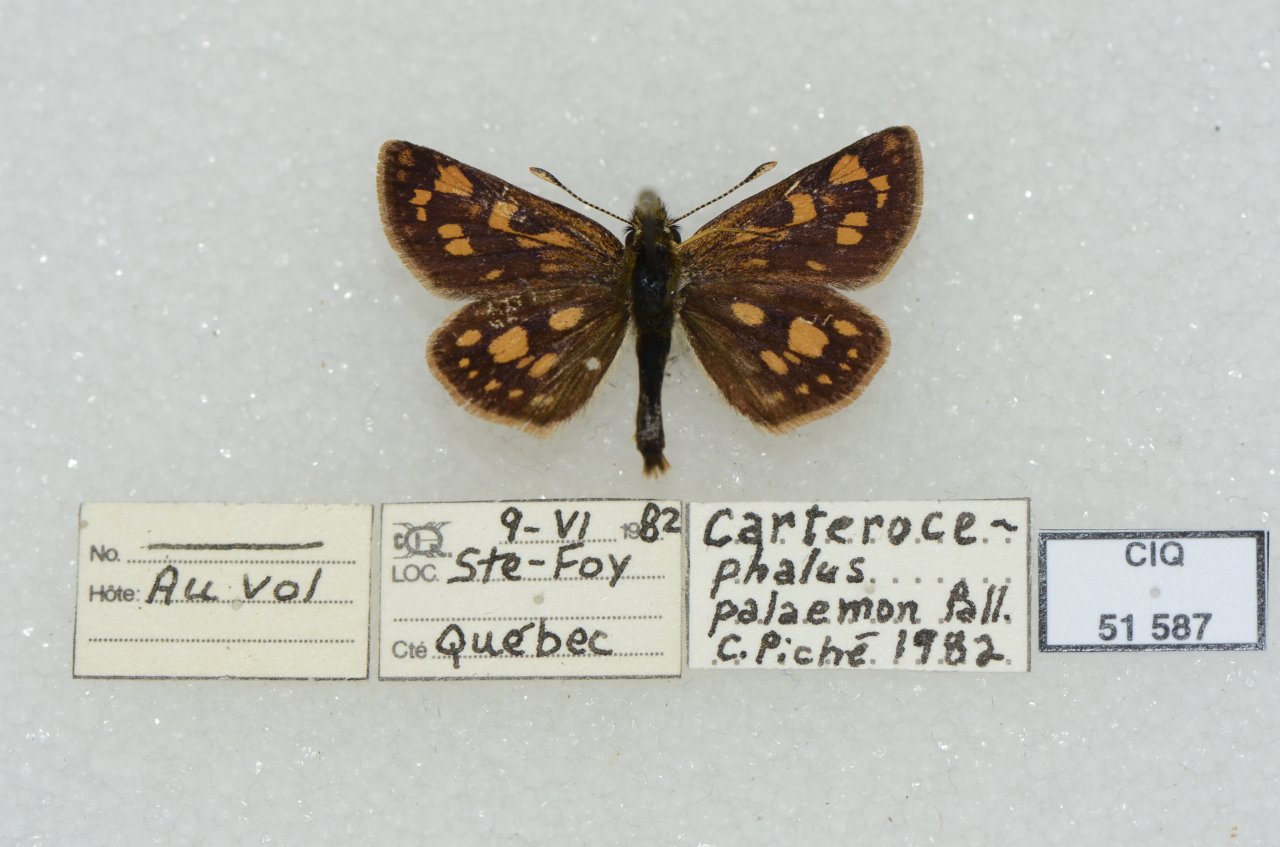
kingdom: Animalia
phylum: Arthropoda
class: Insecta
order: Lepidoptera
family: Hesperiidae
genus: Carterocephalus
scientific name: Carterocephalus palaemon
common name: Chequered Skipper
